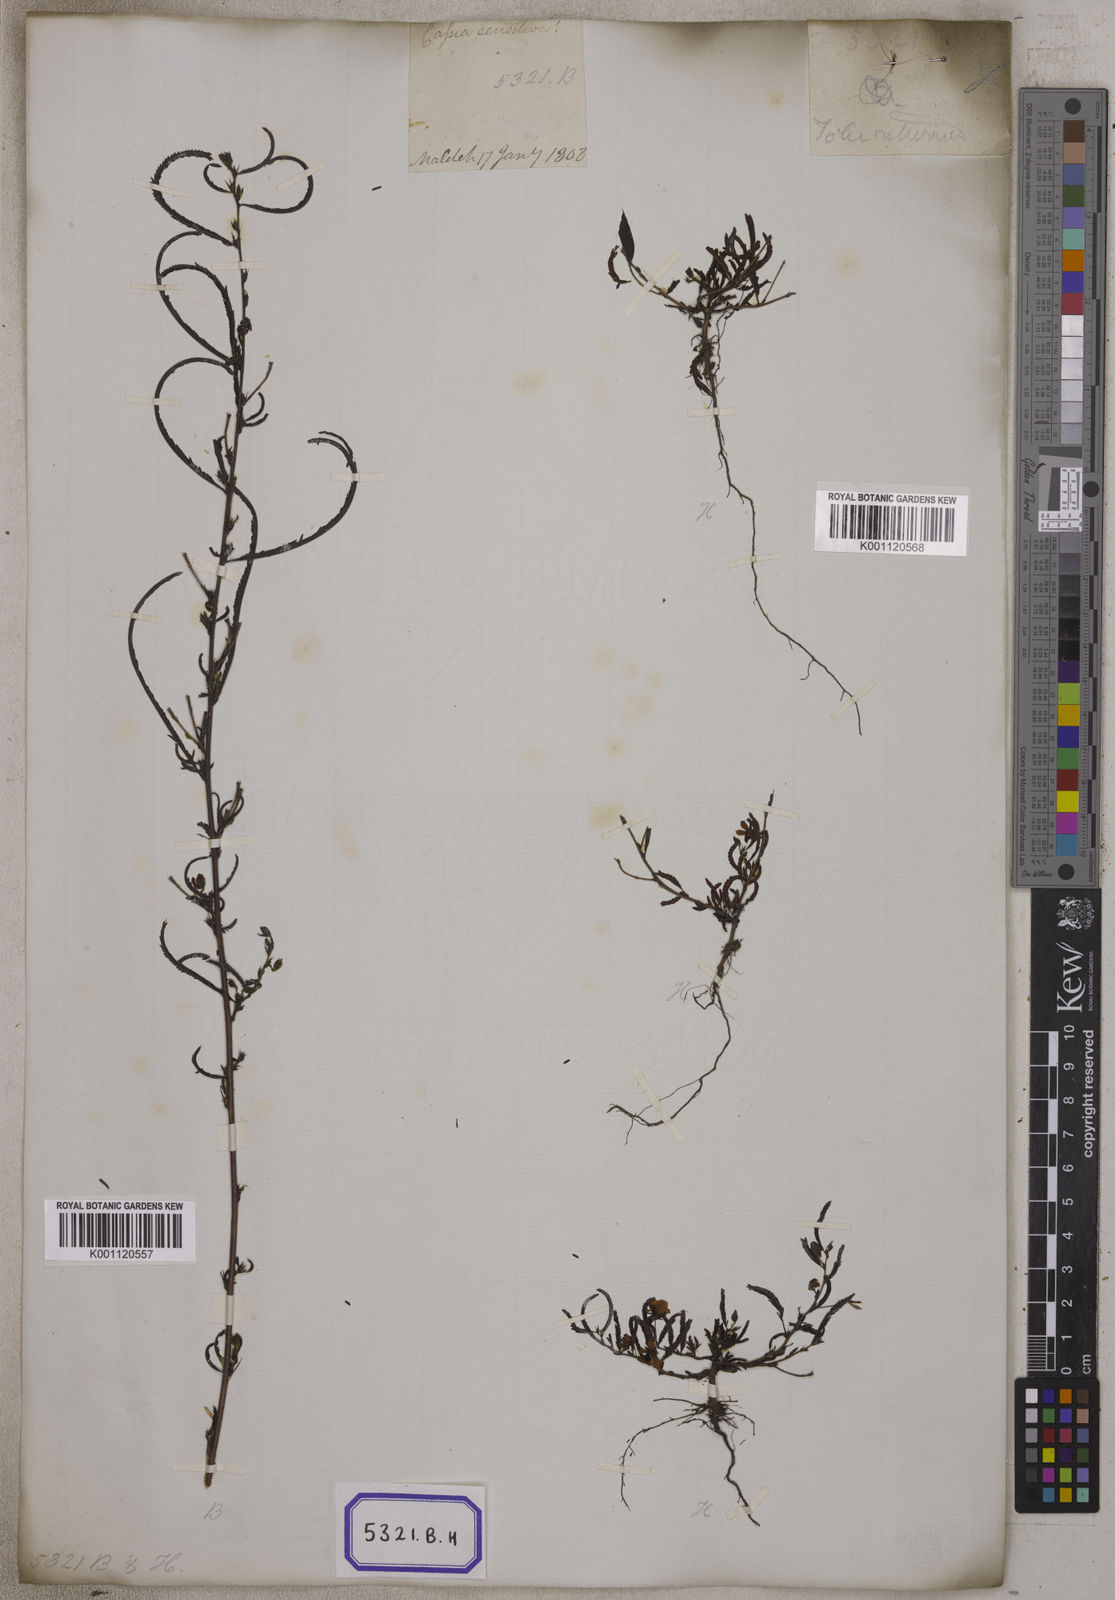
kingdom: Plantae
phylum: Tracheophyta
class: Magnoliopsida
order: Fabales
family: Fabaceae
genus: Chamaecrista
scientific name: Chamaecrista mimosoides
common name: Fish-bone cassia
